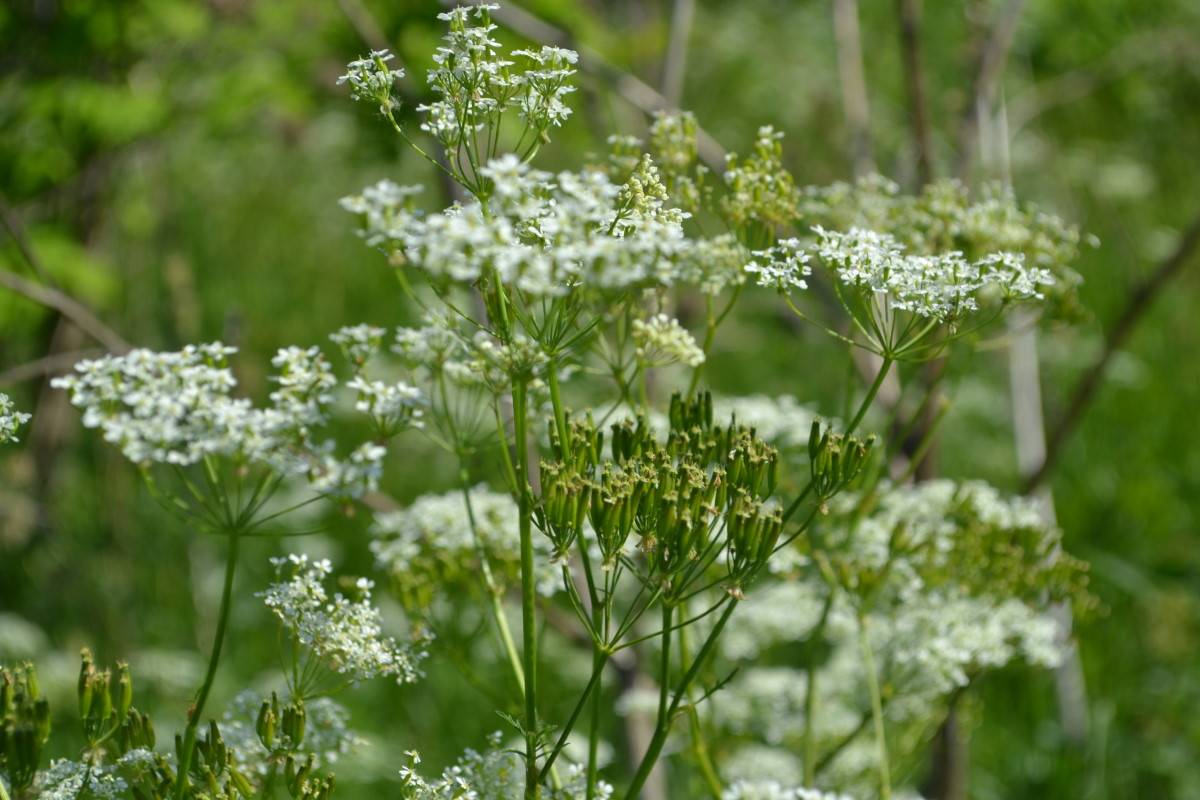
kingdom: Plantae
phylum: Tracheophyta
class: Magnoliopsida
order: Apiales
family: Apiaceae
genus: Anthriscus
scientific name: Anthriscus sylvestris
